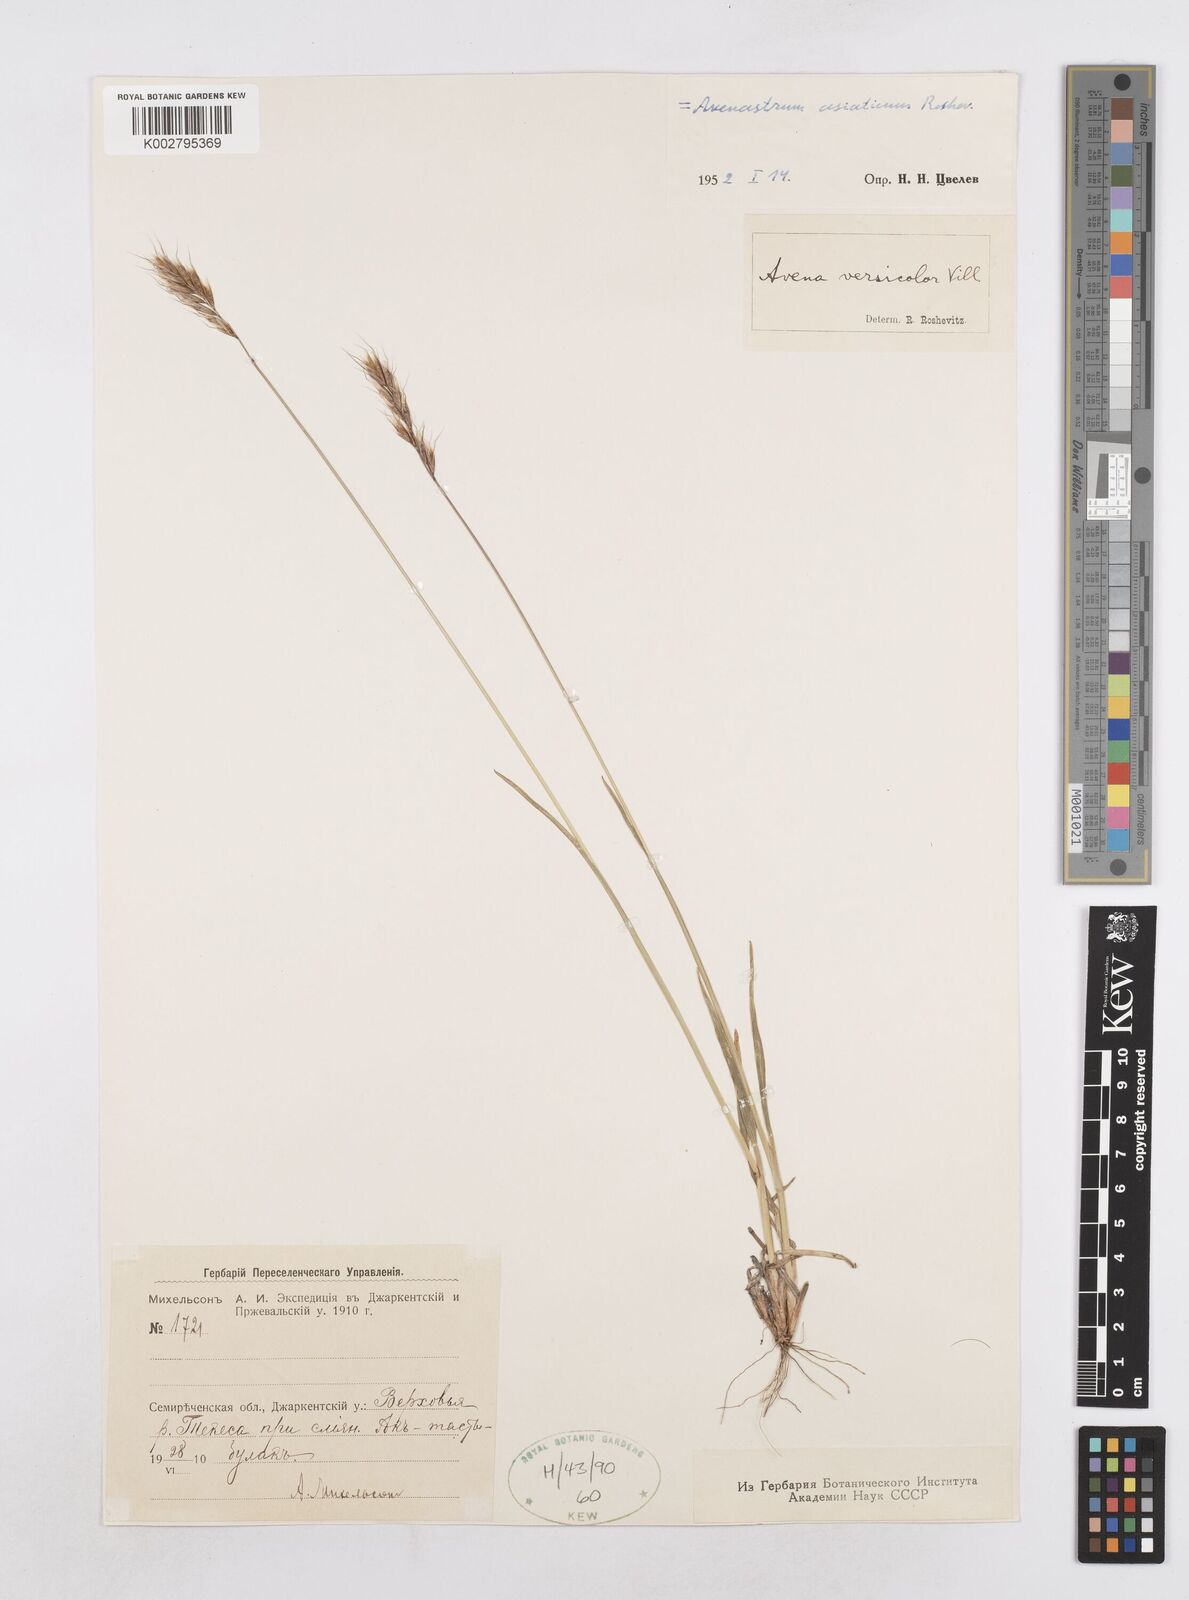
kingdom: Plantae
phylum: Tracheophyta
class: Liliopsida
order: Poales
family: Poaceae
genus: Helictotrichon
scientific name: Helictotrichon
